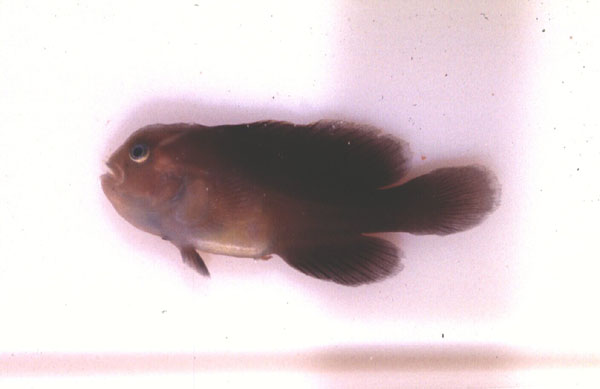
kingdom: Animalia
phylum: Chordata
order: Perciformes
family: Gobiidae
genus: Gobiodon
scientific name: Gobiodon micropus
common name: Small-eyed goby
